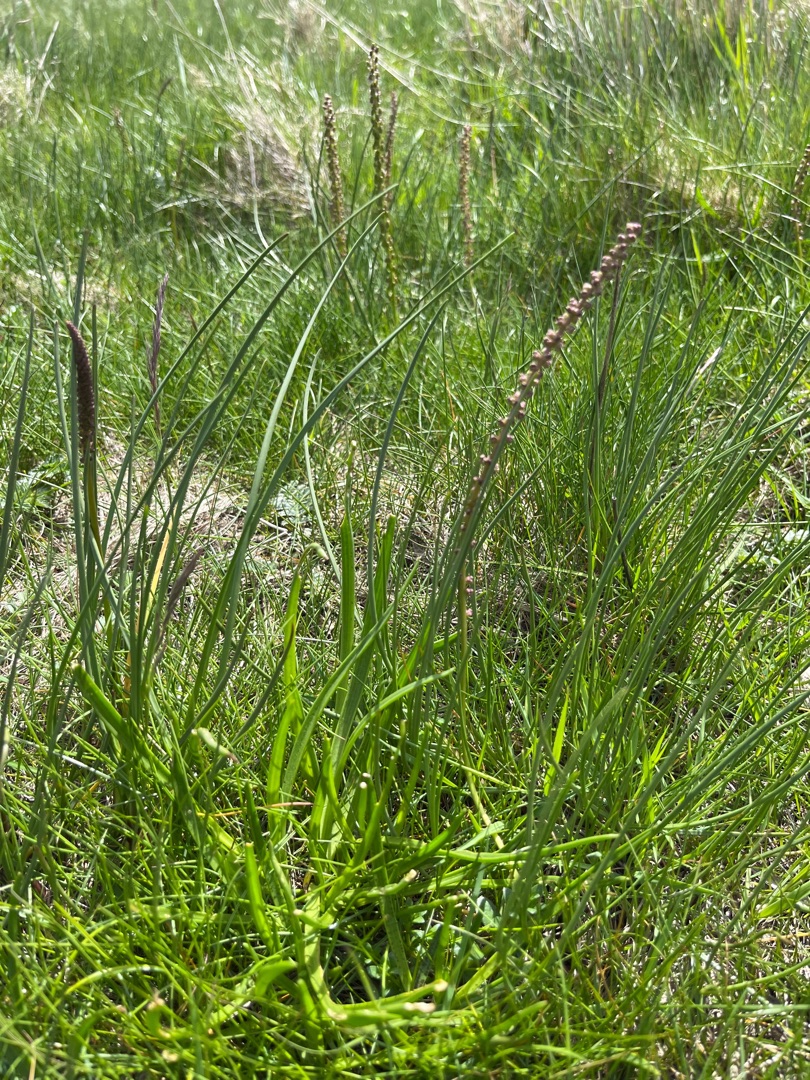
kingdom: Plantae
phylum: Tracheophyta
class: Liliopsida
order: Alismatales
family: Juncaginaceae
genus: Triglochin
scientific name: Triglochin maritima
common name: Strand-trehage
